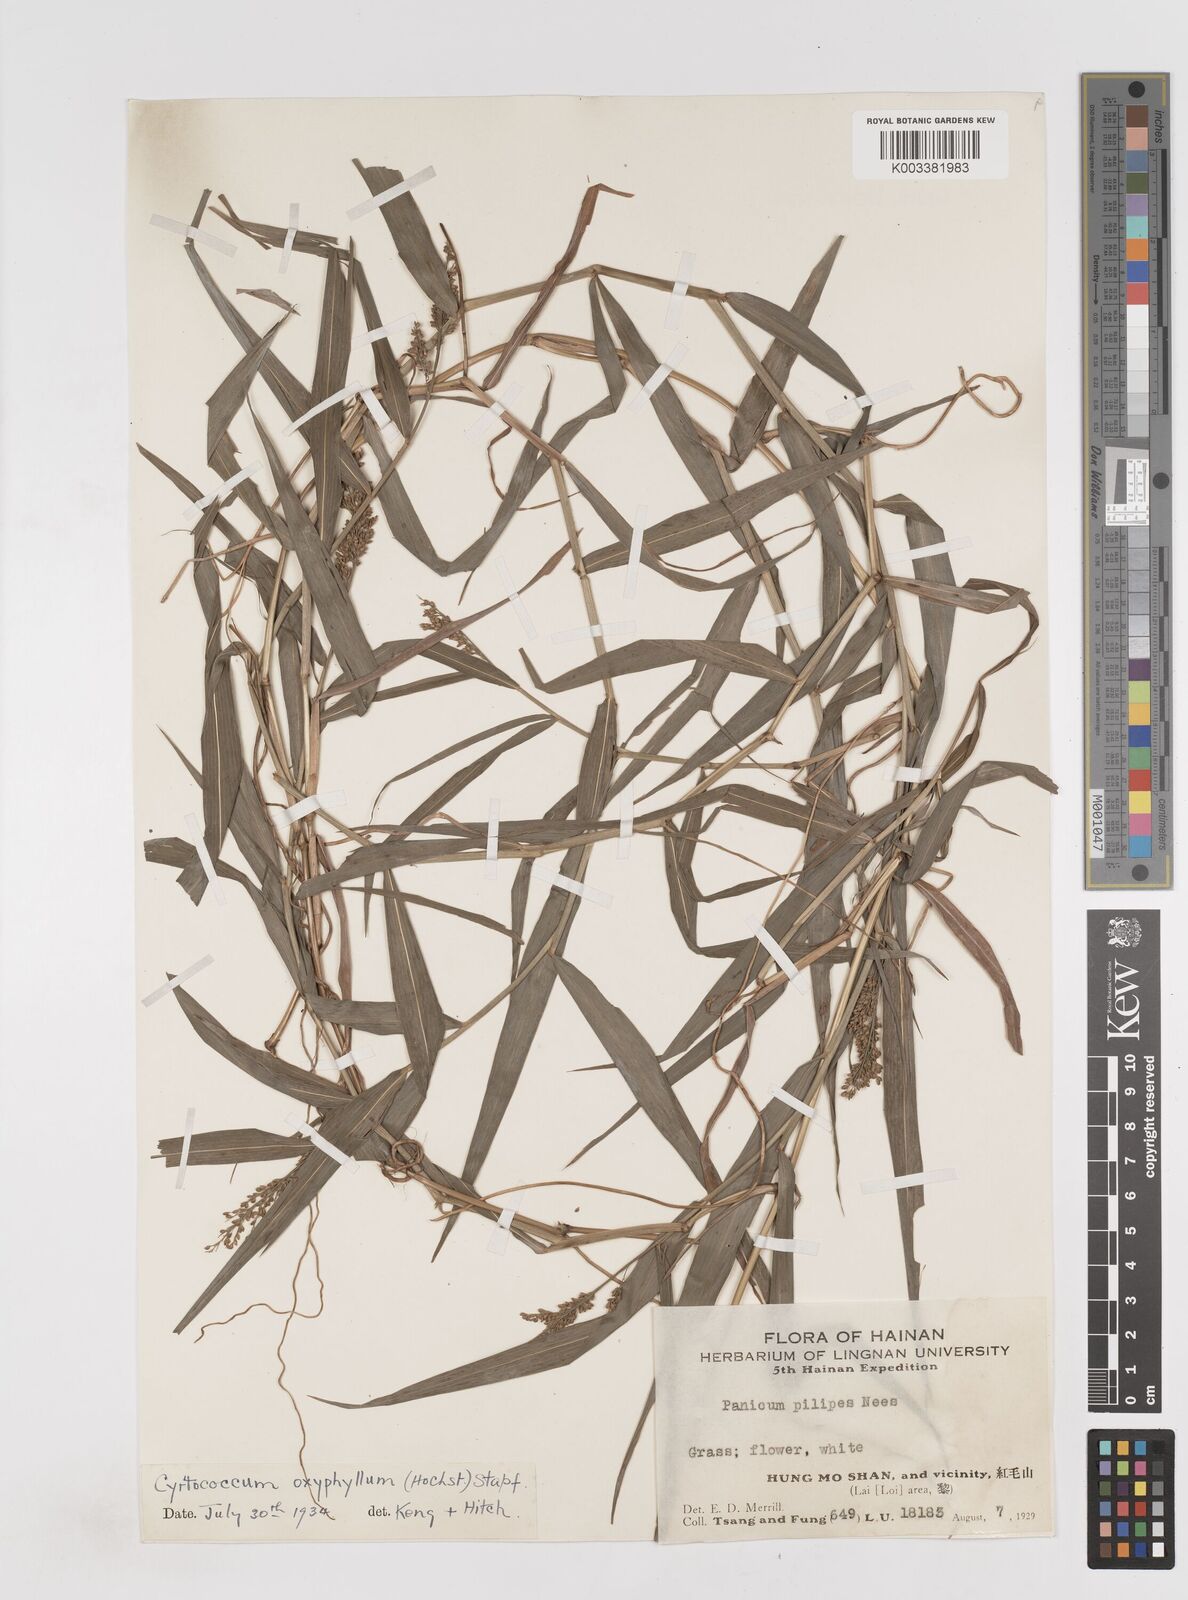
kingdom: Plantae
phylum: Tracheophyta
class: Liliopsida
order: Poales
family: Poaceae
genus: Cyrtococcum
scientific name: Cyrtococcum oxyphyllum
